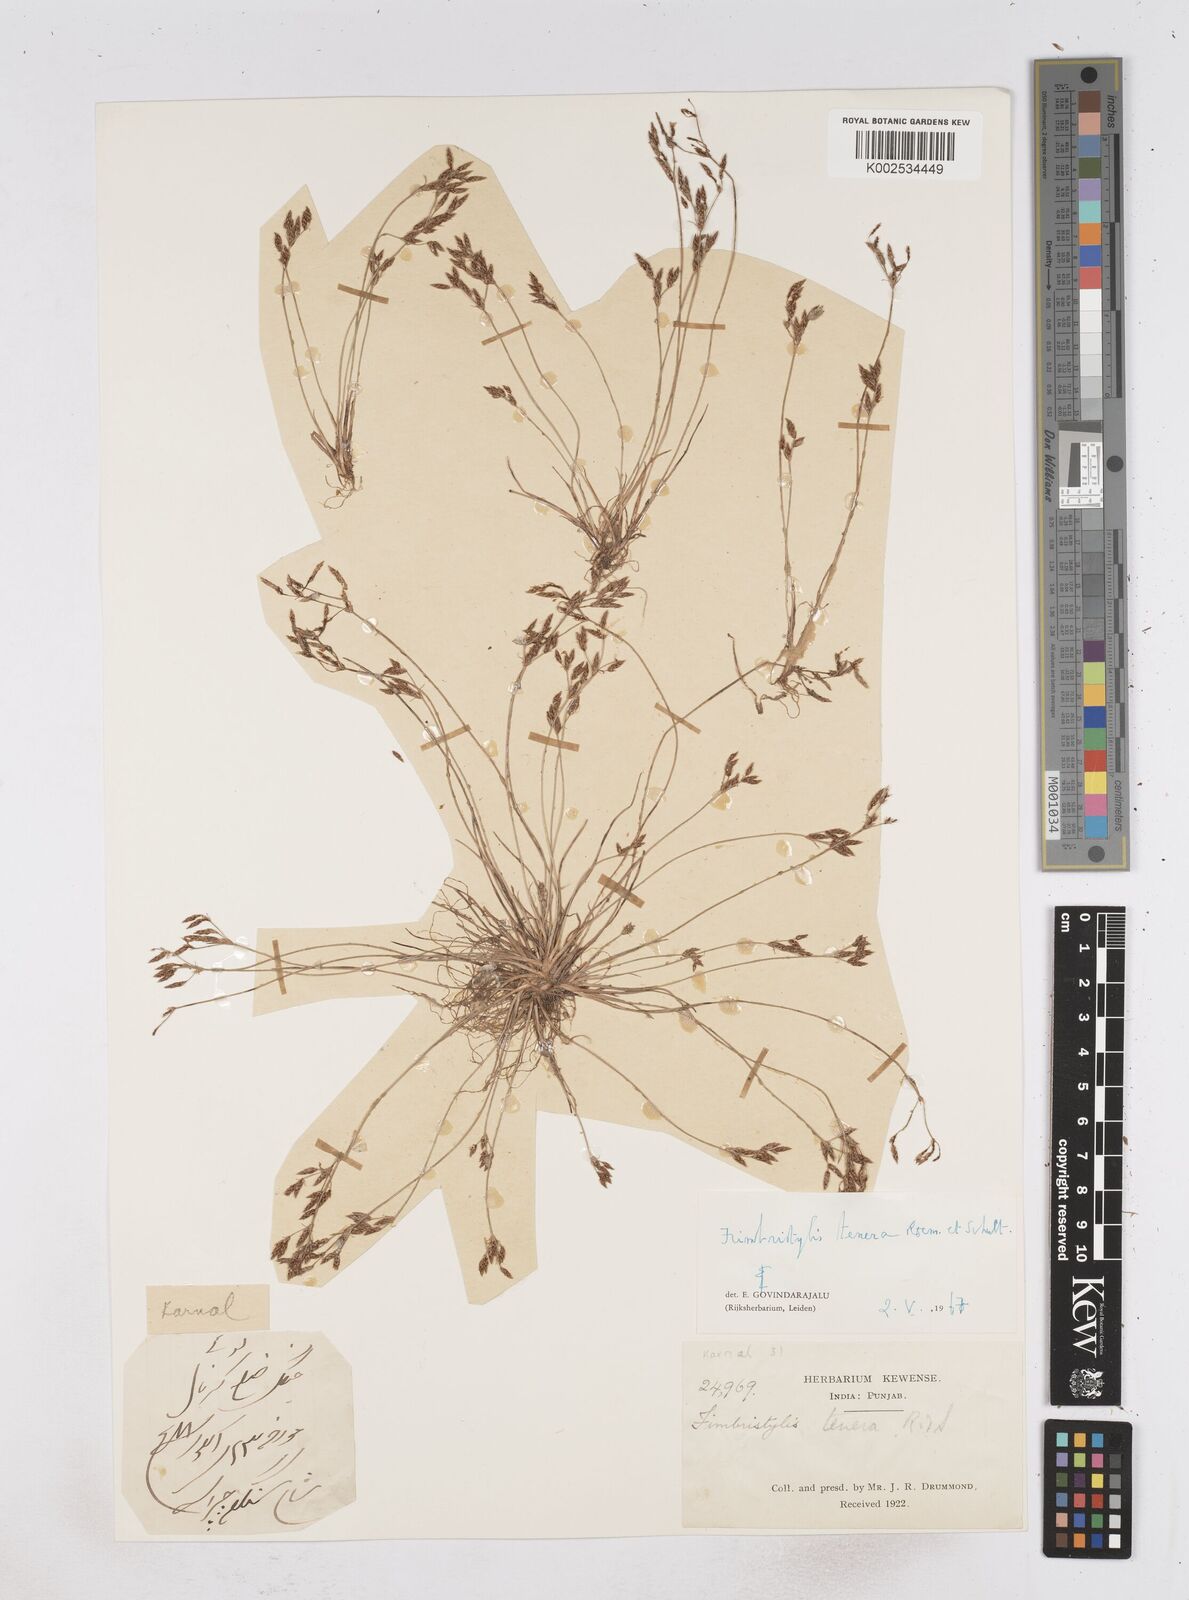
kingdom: Plantae
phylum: Tracheophyta
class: Liliopsida
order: Poales
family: Cyperaceae
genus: Fimbristylis
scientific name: Fimbristylis tenera
